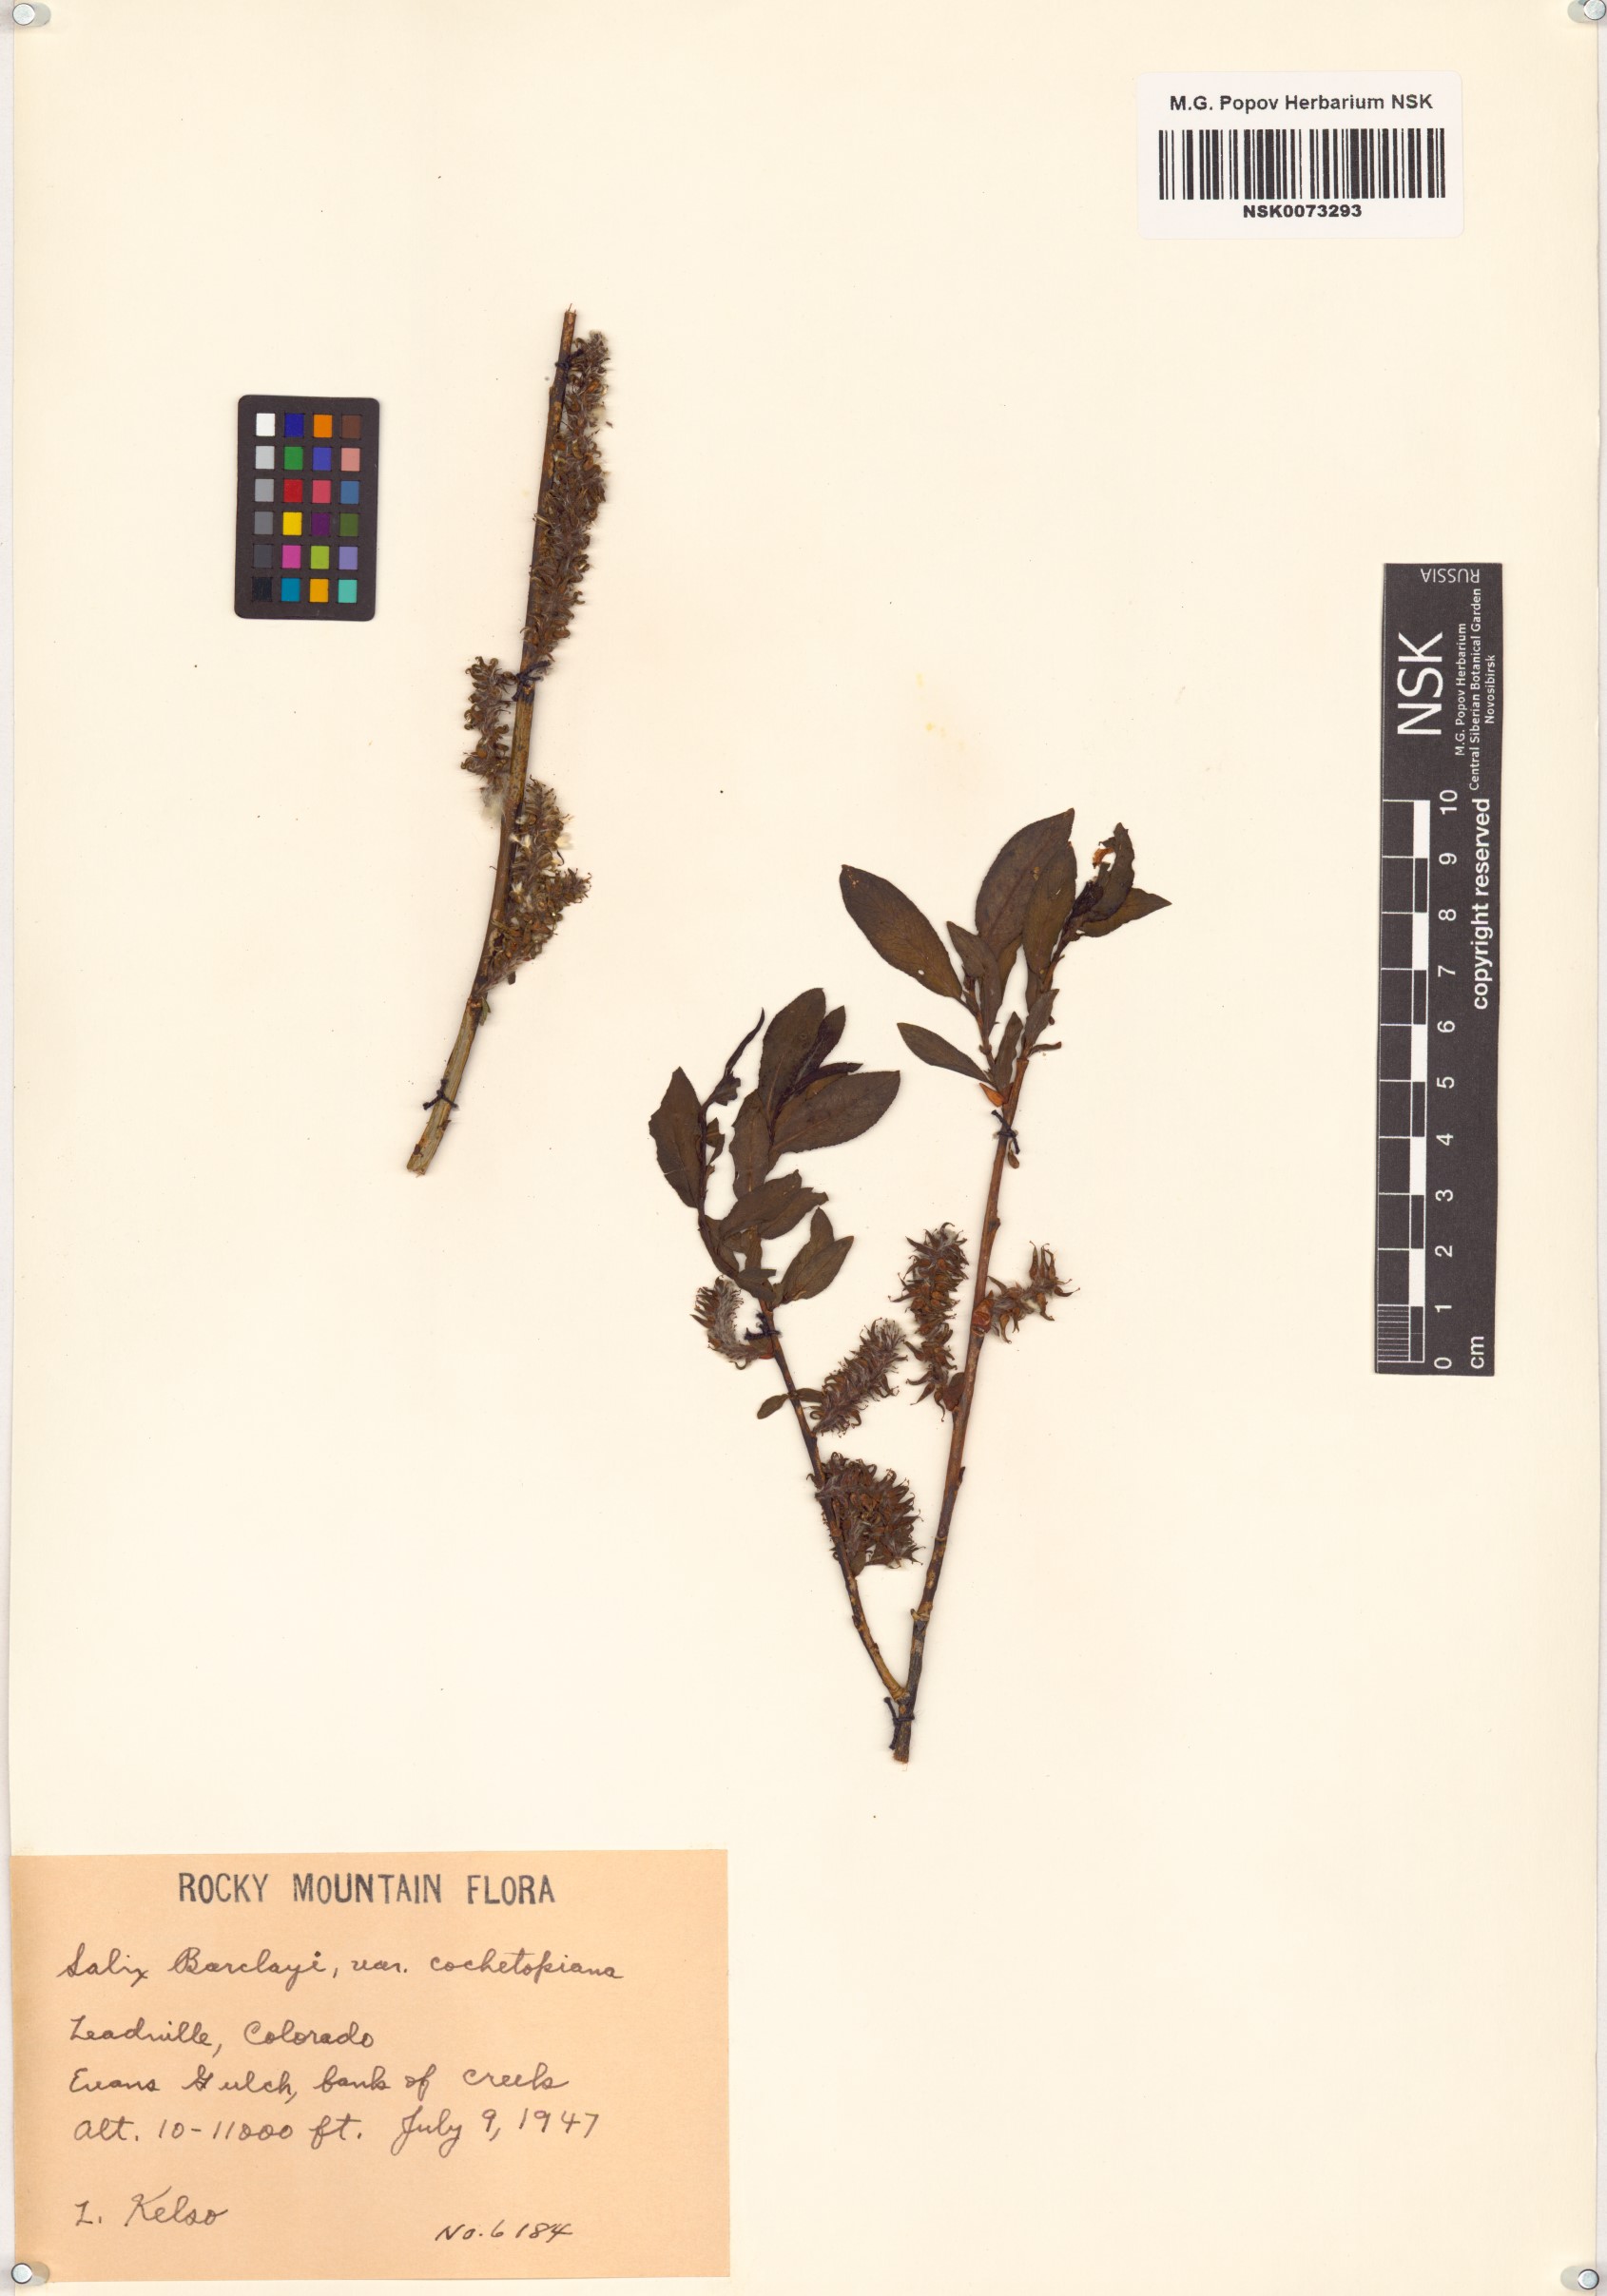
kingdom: Plantae
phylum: Tracheophyta
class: Magnoliopsida
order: Malpighiales
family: Salicaceae
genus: Salix
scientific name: Salix monticola
